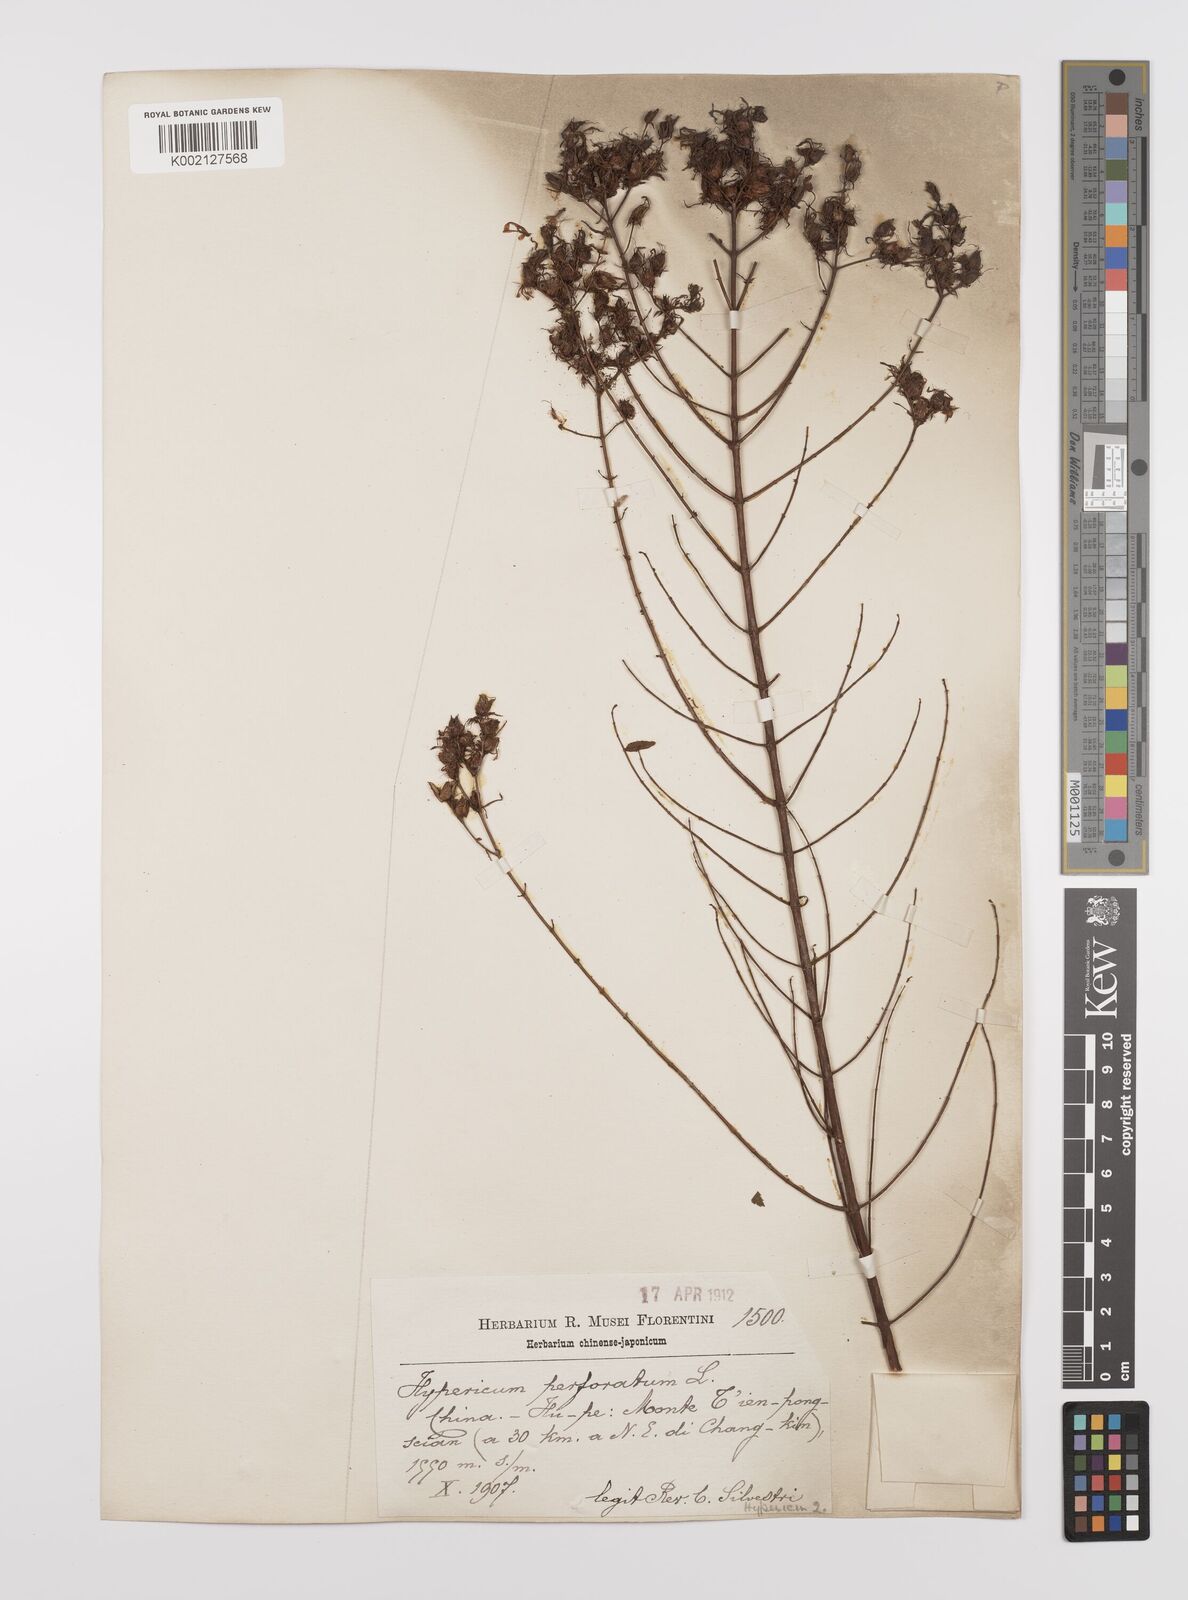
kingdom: Plantae
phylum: Tracheophyta
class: Magnoliopsida
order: Malpighiales
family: Hypericaceae
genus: Hypericum
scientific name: Hypericum perforatum
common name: Common st. johnswort
